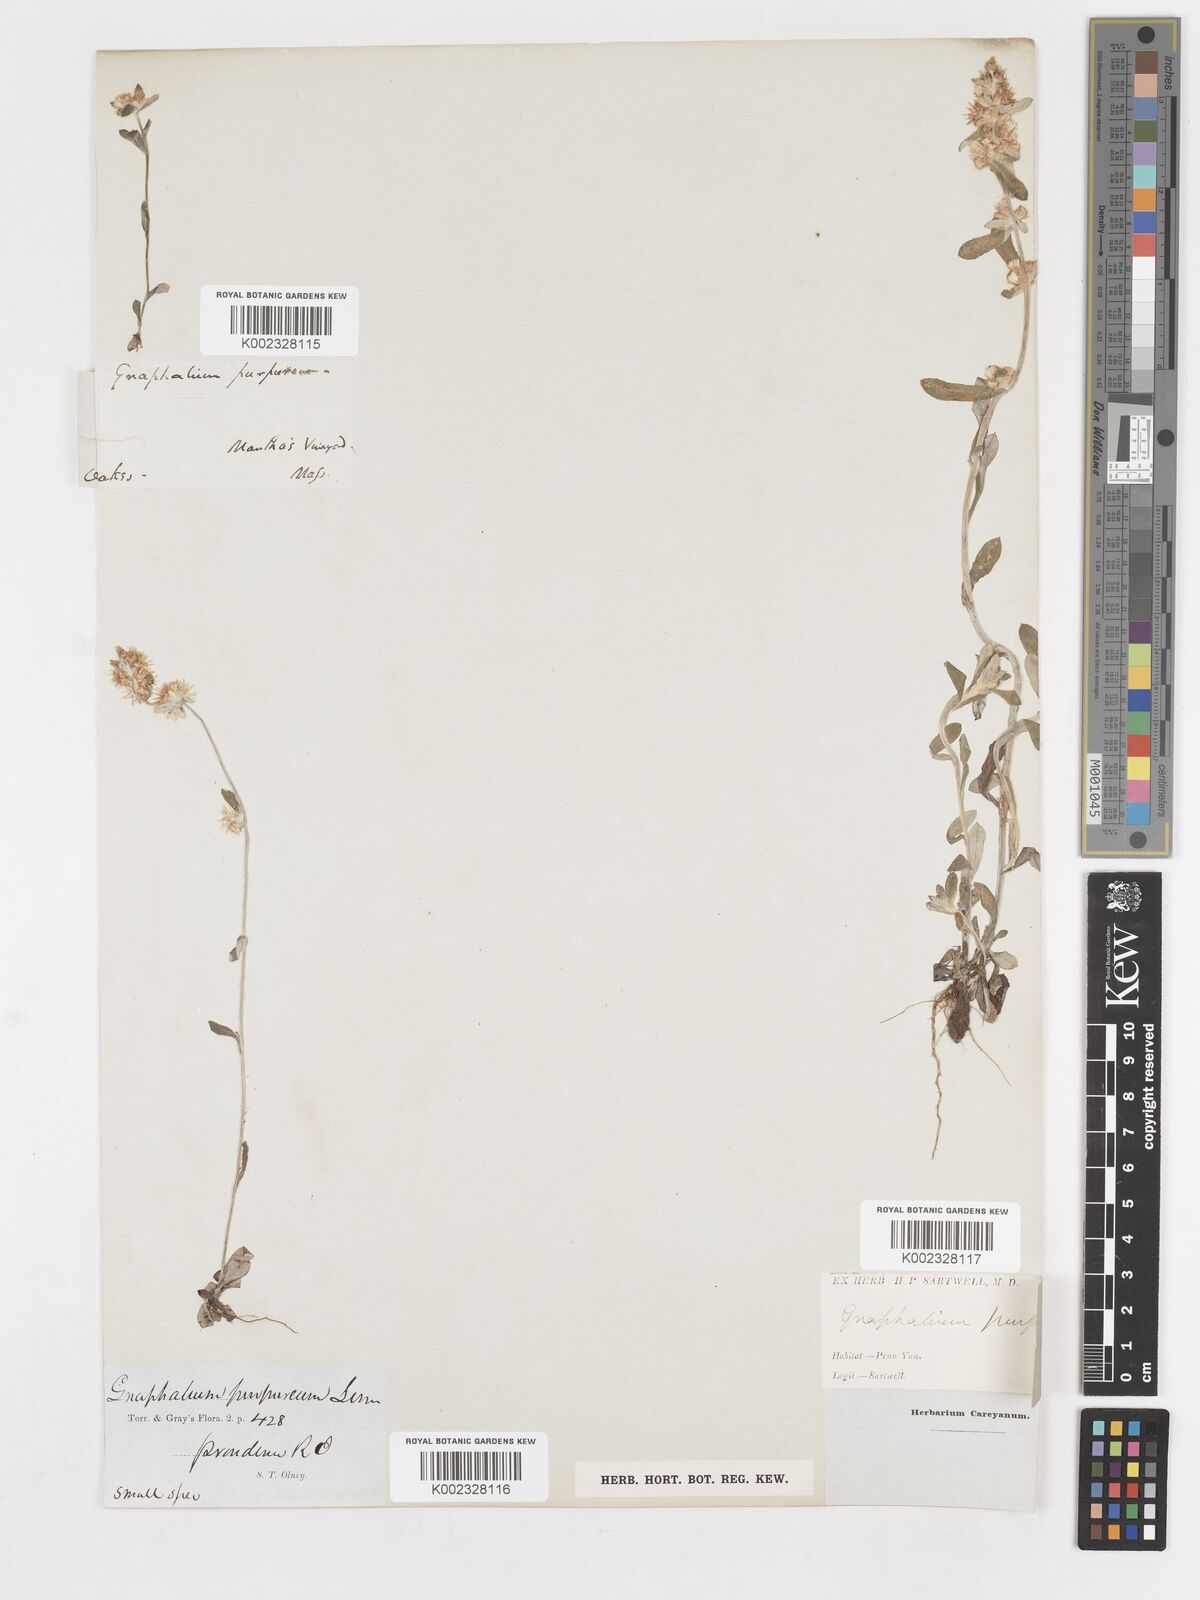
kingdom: Plantae
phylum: Tracheophyta
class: Magnoliopsida
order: Asterales
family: Asteraceae
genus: Gamochaeta
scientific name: Gamochaeta pensylvanica
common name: Pennsylvania everlasting
